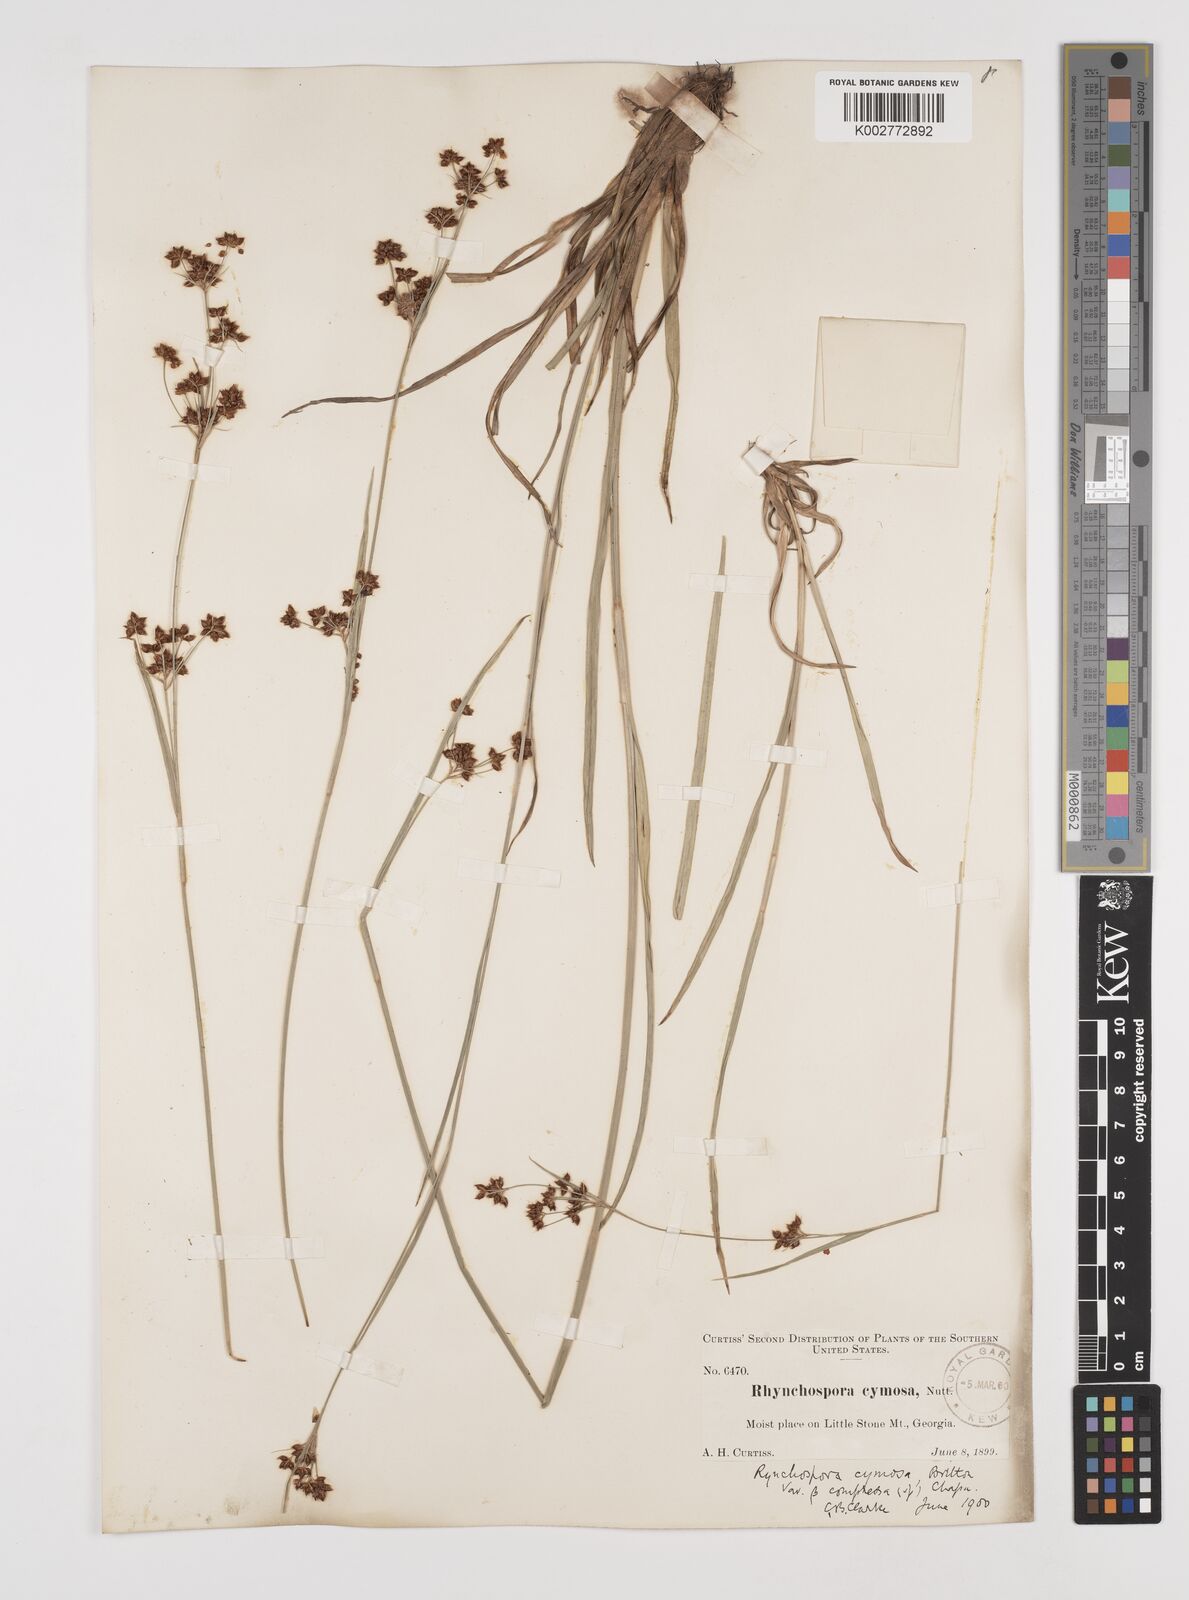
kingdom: Plantae
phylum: Tracheophyta
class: Liliopsida
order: Poales
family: Cyperaceae
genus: Scirpus
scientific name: Scirpus polyphyllus
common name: Leafy bulrush
